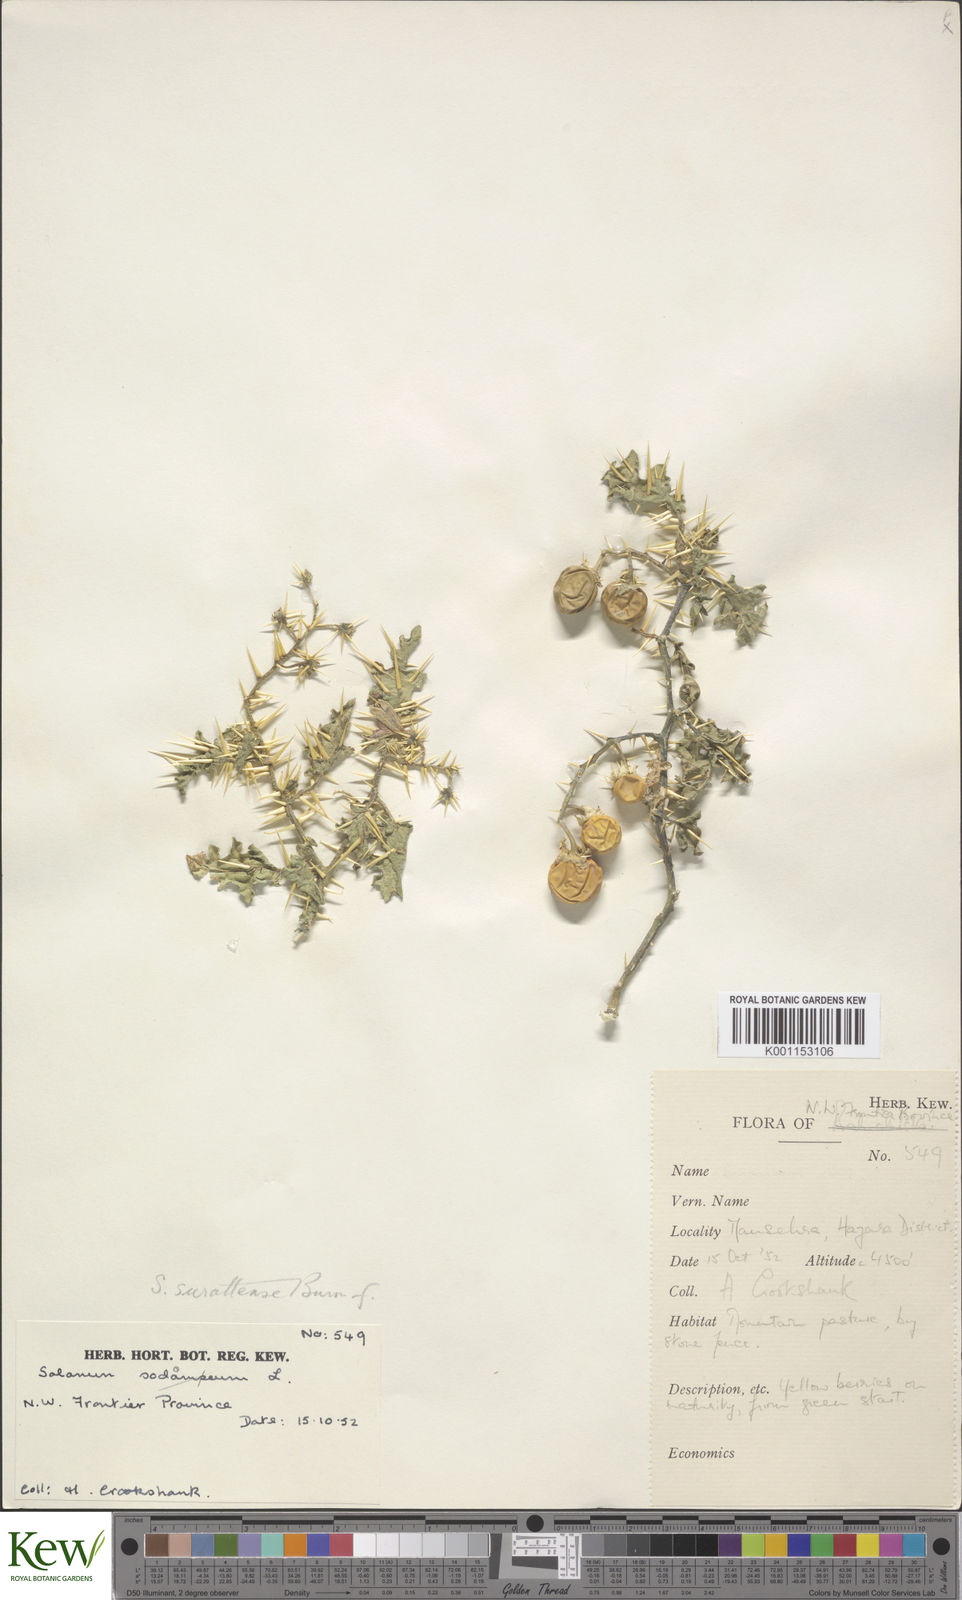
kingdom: Plantae
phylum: Tracheophyta
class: Magnoliopsida
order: Solanales
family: Solanaceae
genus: Solanum
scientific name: Solanum virginianum
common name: Surattense nightshade
